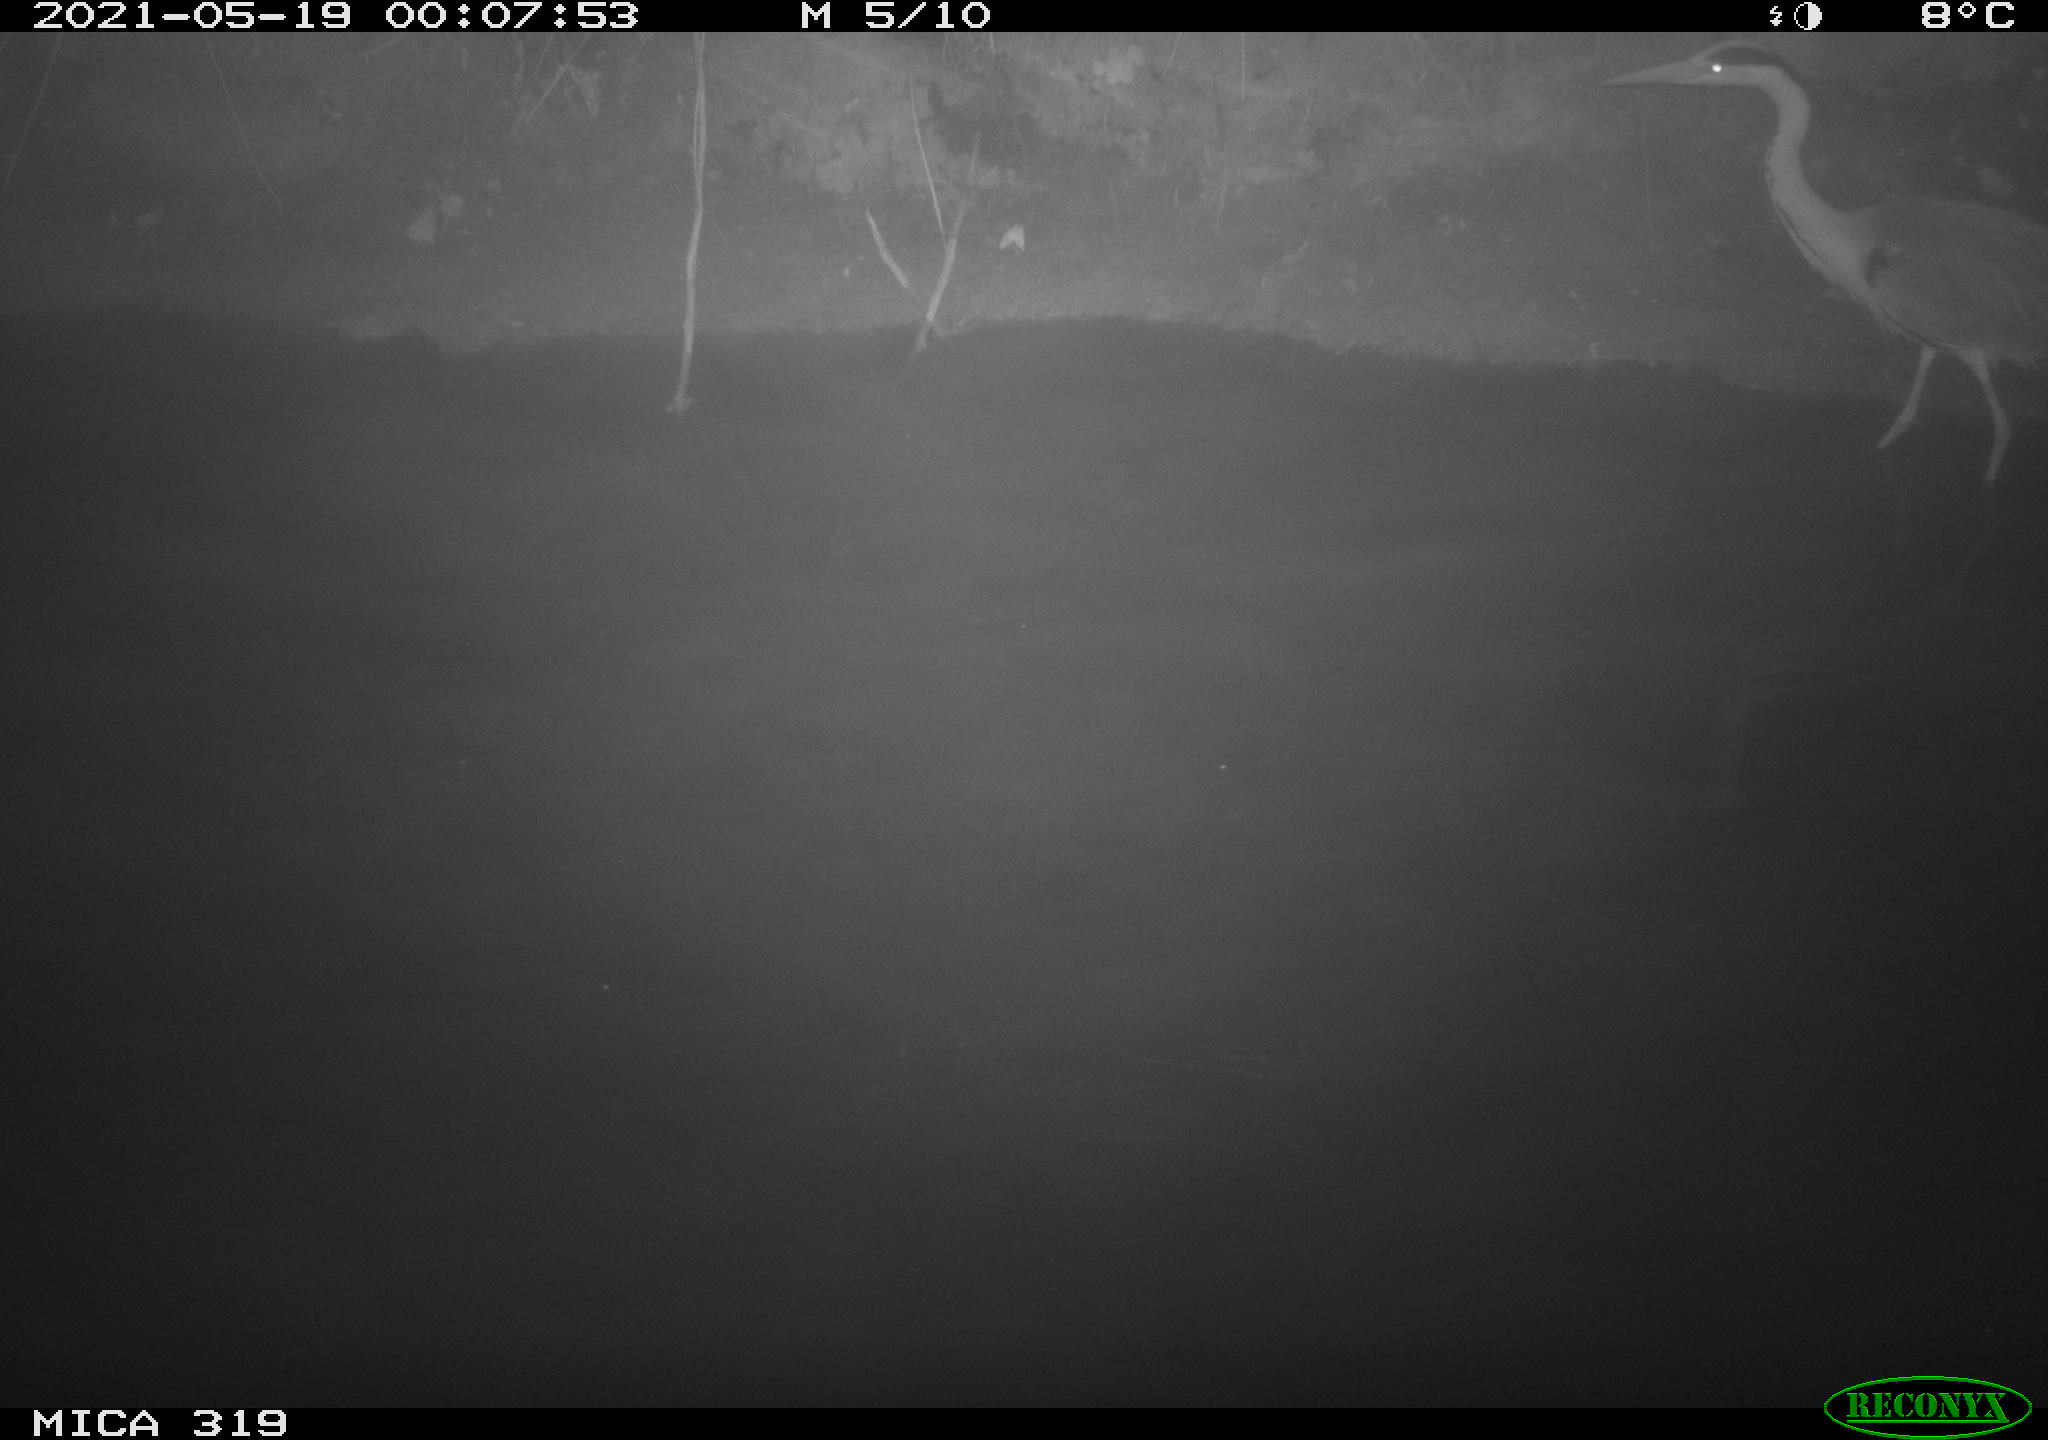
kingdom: Animalia
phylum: Chordata
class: Aves
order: Anseriformes
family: Anatidae
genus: Anas
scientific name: Anas platyrhynchos
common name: Mallard
